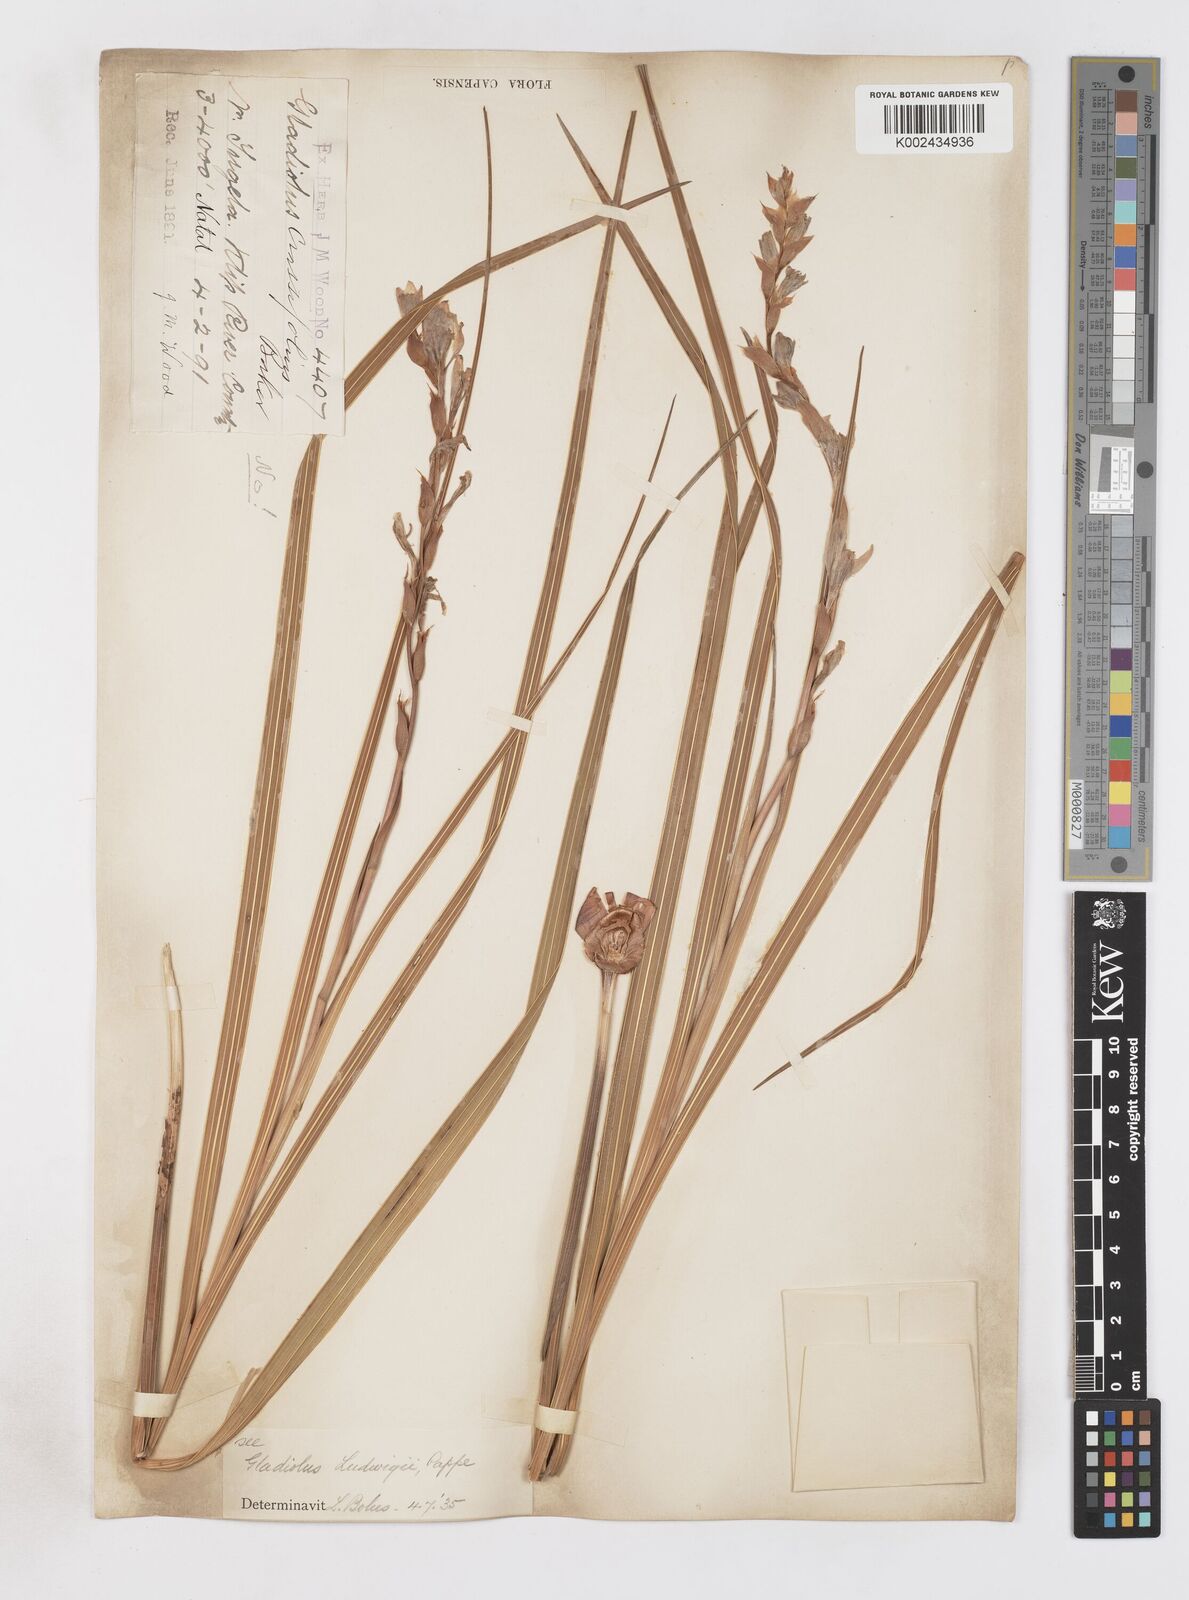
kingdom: Plantae
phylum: Tracheophyta
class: Liliopsida
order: Asparagales
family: Iridaceae
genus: Gladiolus
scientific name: Gladiolus sericeovillosus
